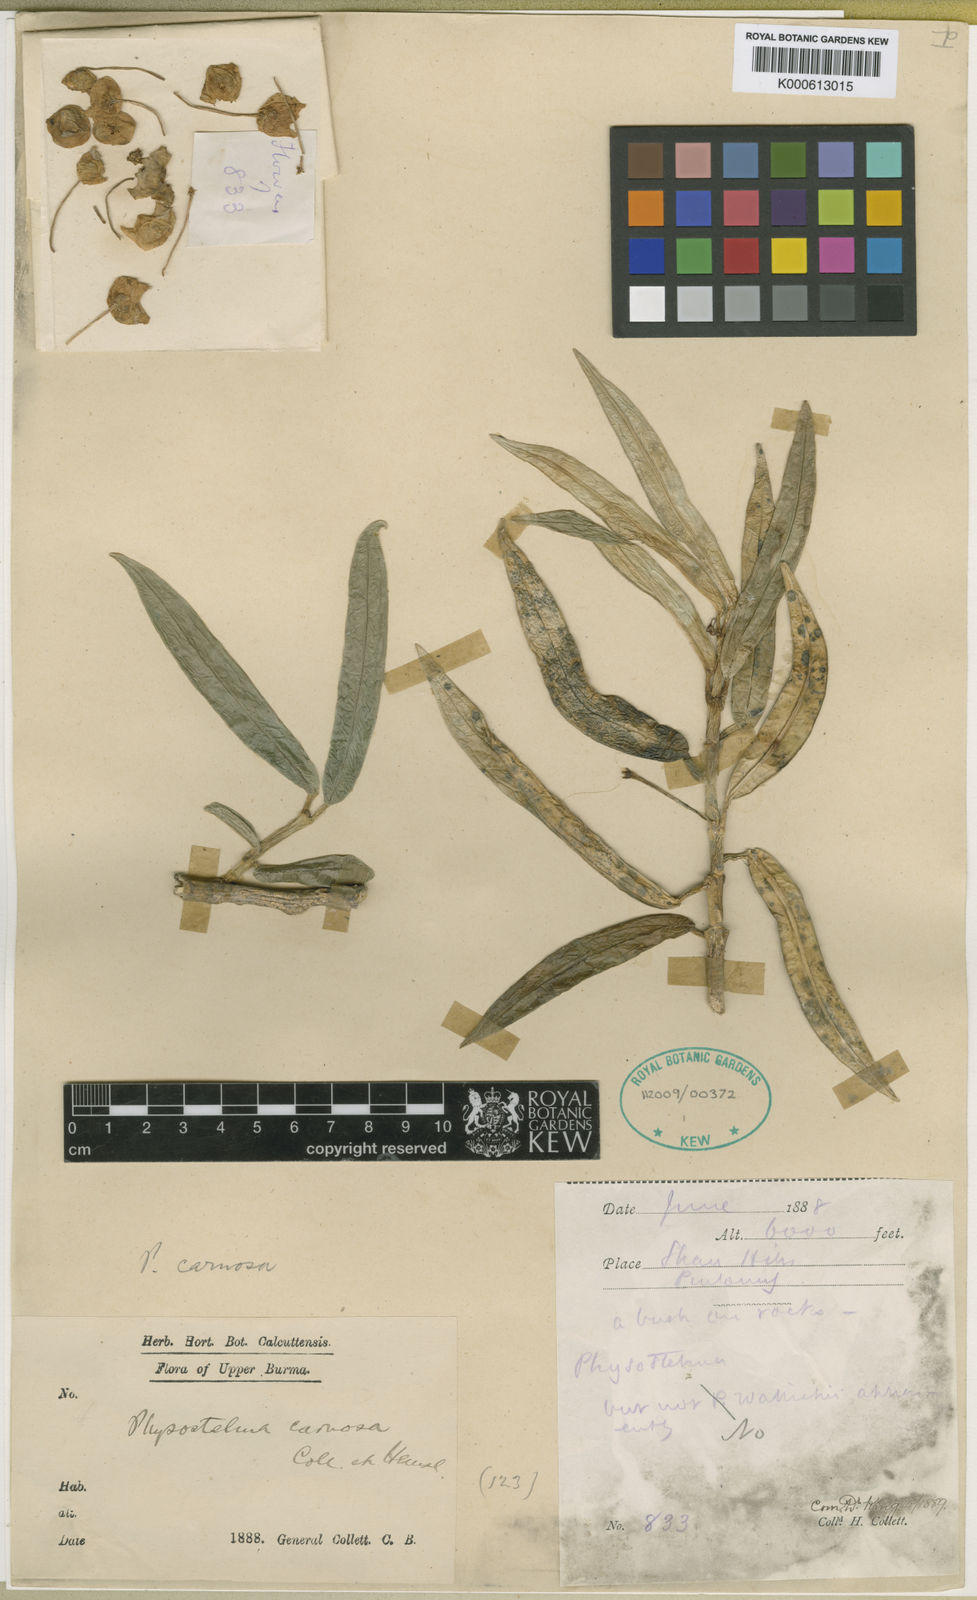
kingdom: Plantae
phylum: Tracheophyta
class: Magnoliopsida
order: Gentianales
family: Apocynaceae
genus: Hoya
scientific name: Hoya collettii
